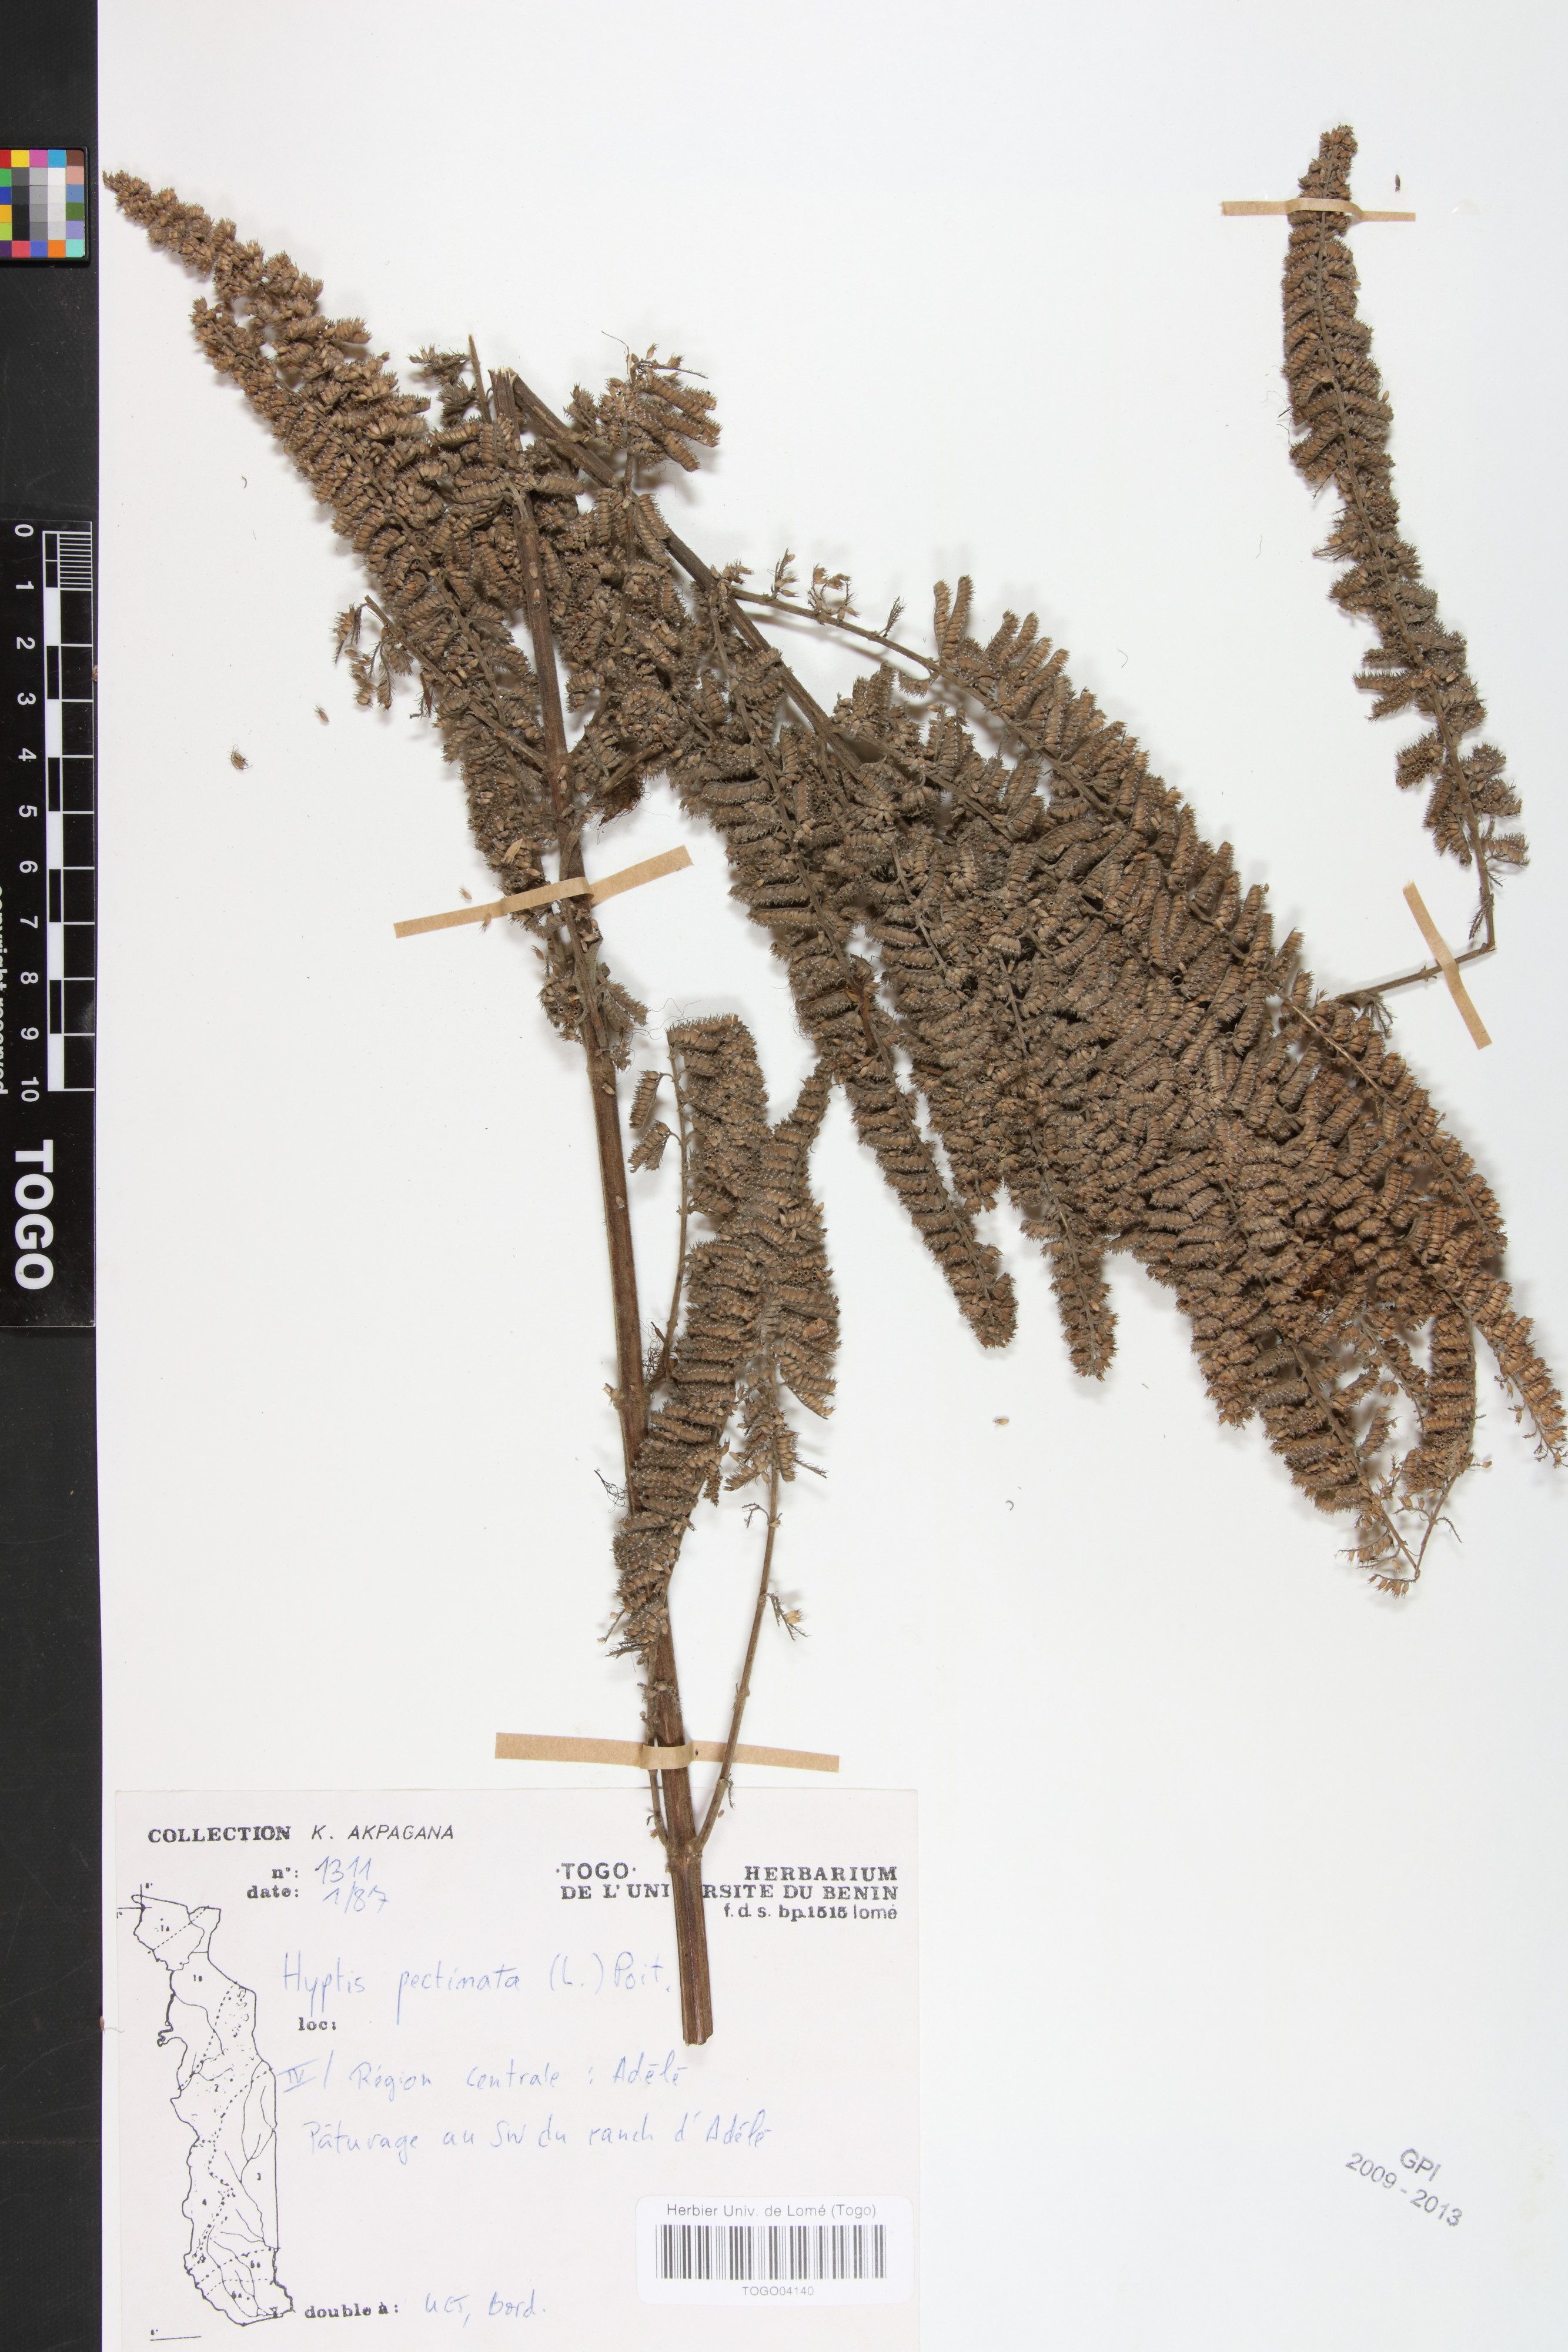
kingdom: Plantae
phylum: Tracheophyta
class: Magnoliopsida
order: Lamiales
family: Lamiaceae
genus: Mesosphaerum
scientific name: Mesosphaerum pectinatum
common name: Comb hyptis
